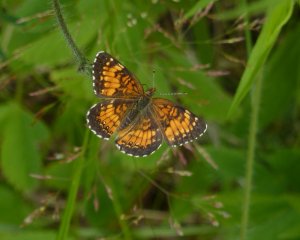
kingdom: Animalia
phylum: Arthropoda
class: Insecta
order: Lepidoptera
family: Nymphalidae
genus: Chlosyne
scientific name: Chlosyne harrisii
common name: Harris's Checkerspot
